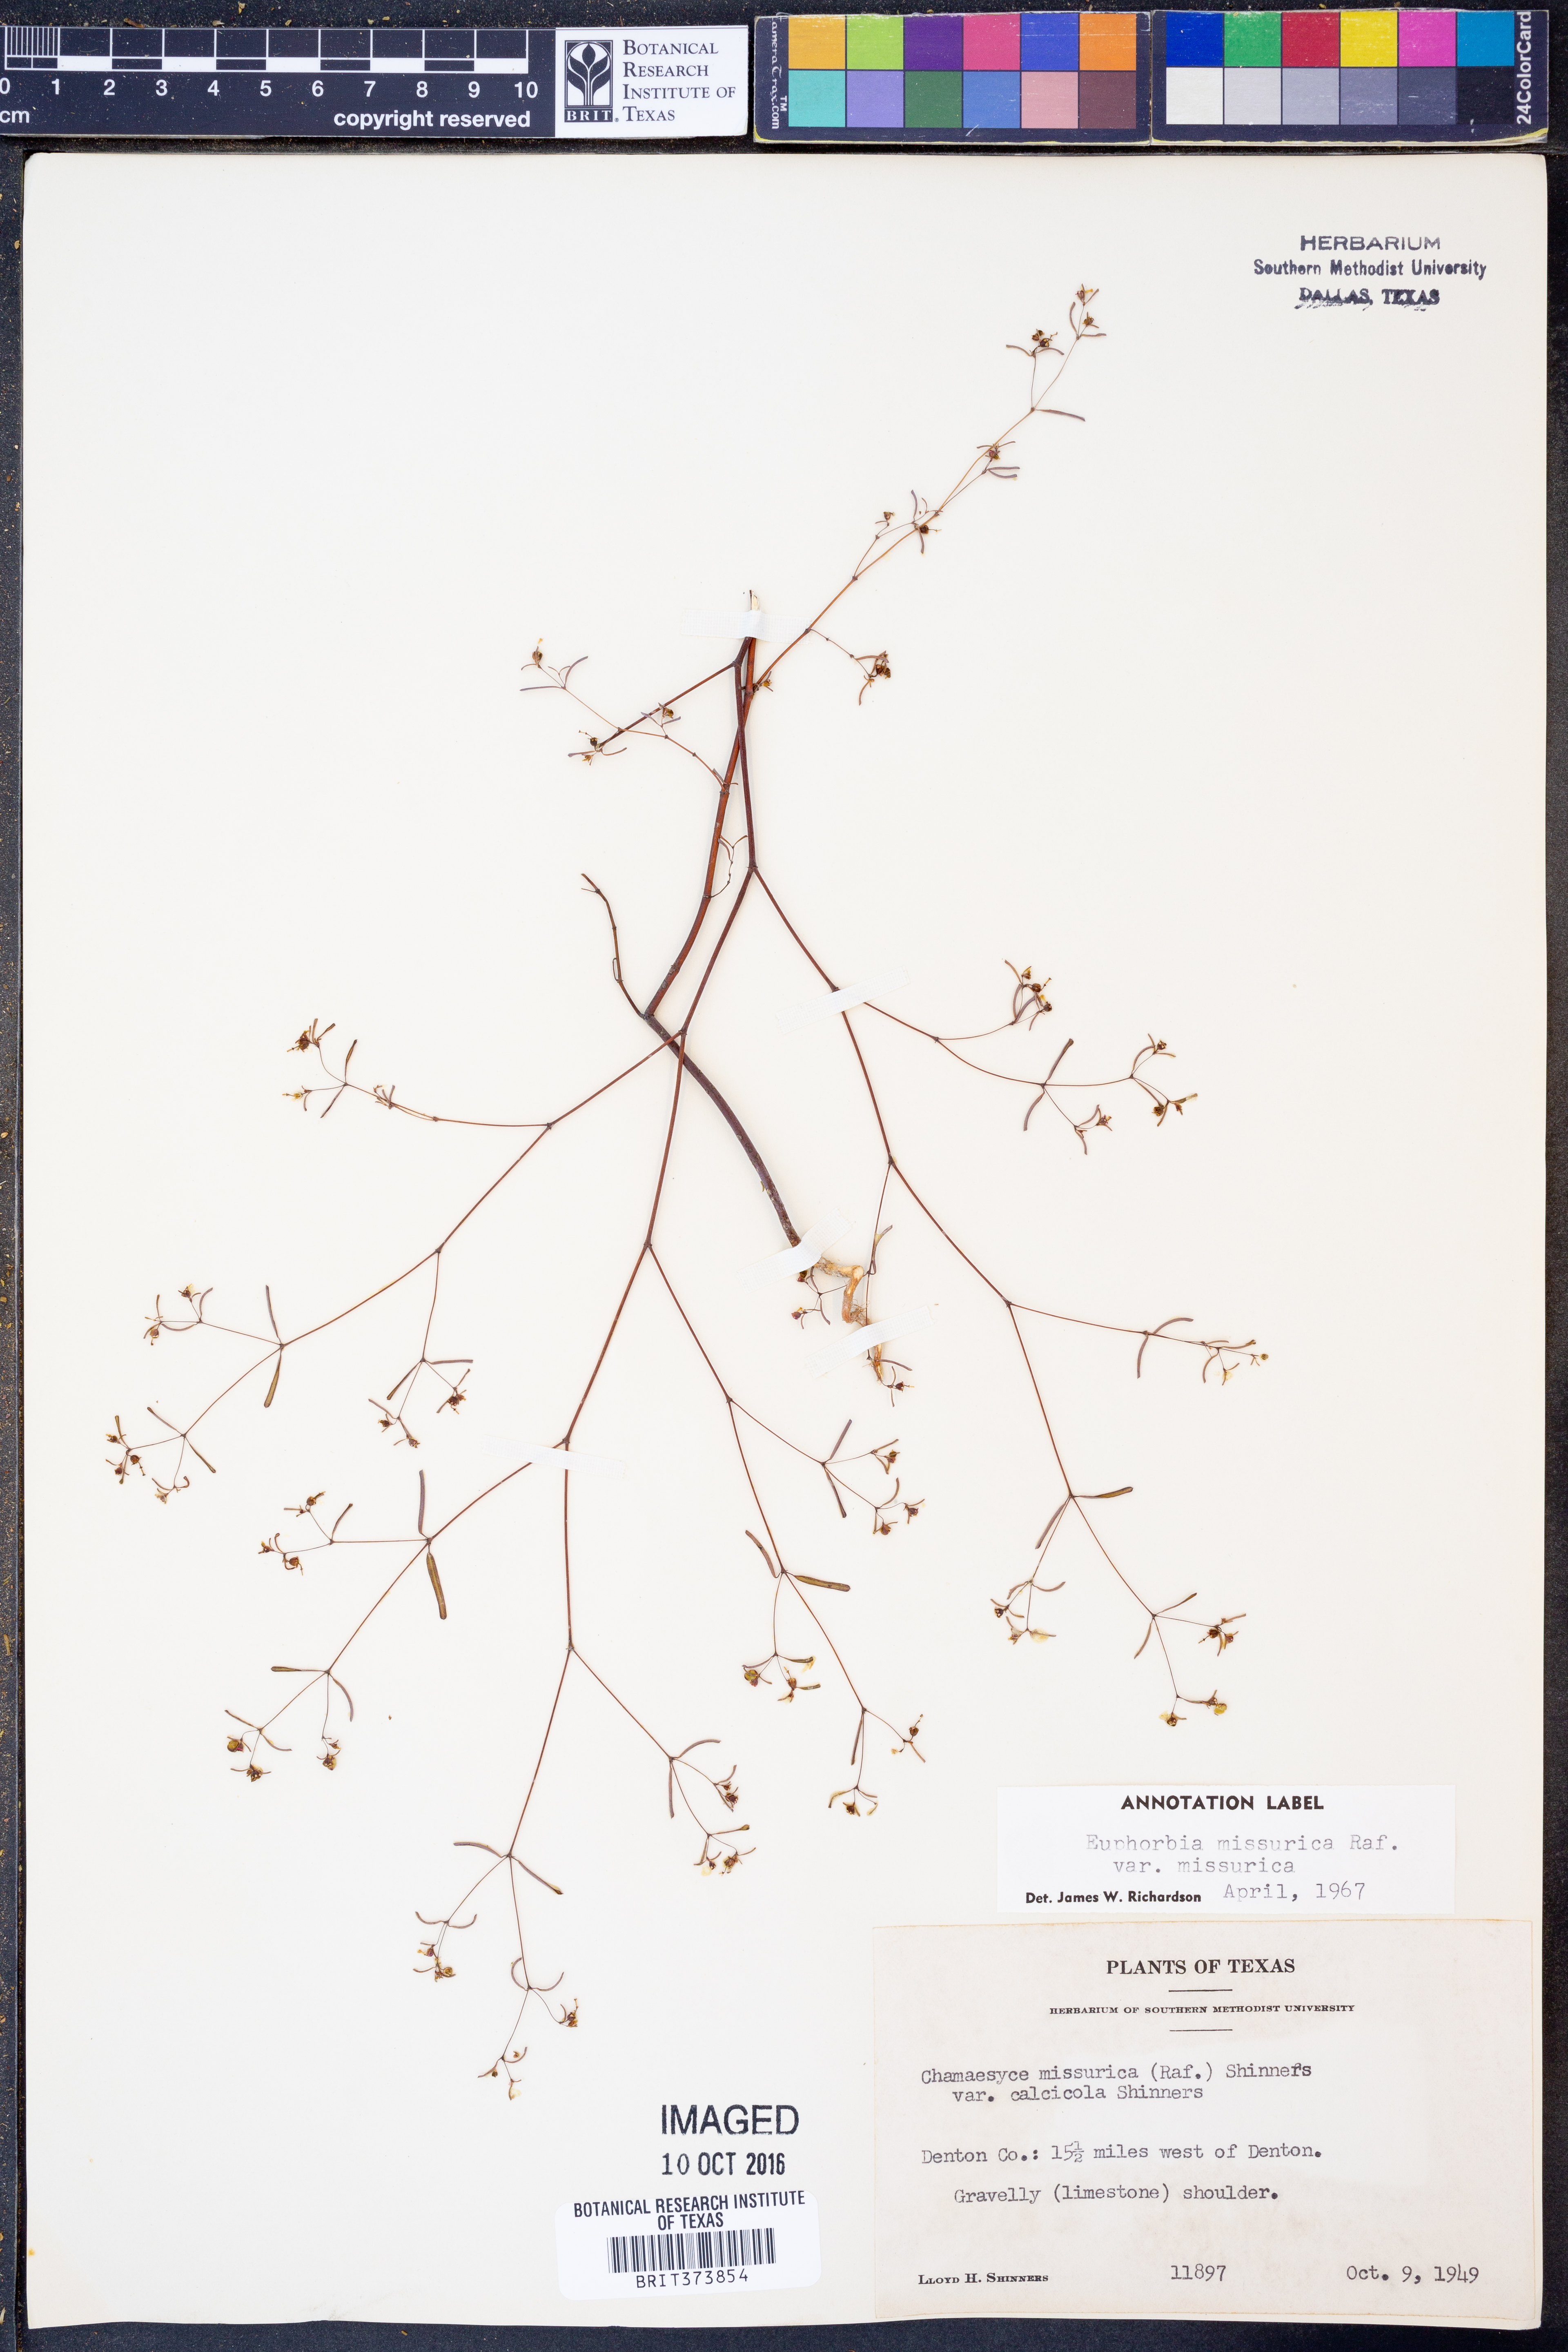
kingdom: Plantae
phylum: Tracheophyta
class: Magnoliopsida
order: Malpighiales
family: Euphorbiaceae
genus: Euphorbia
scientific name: Euphorbia missurica
